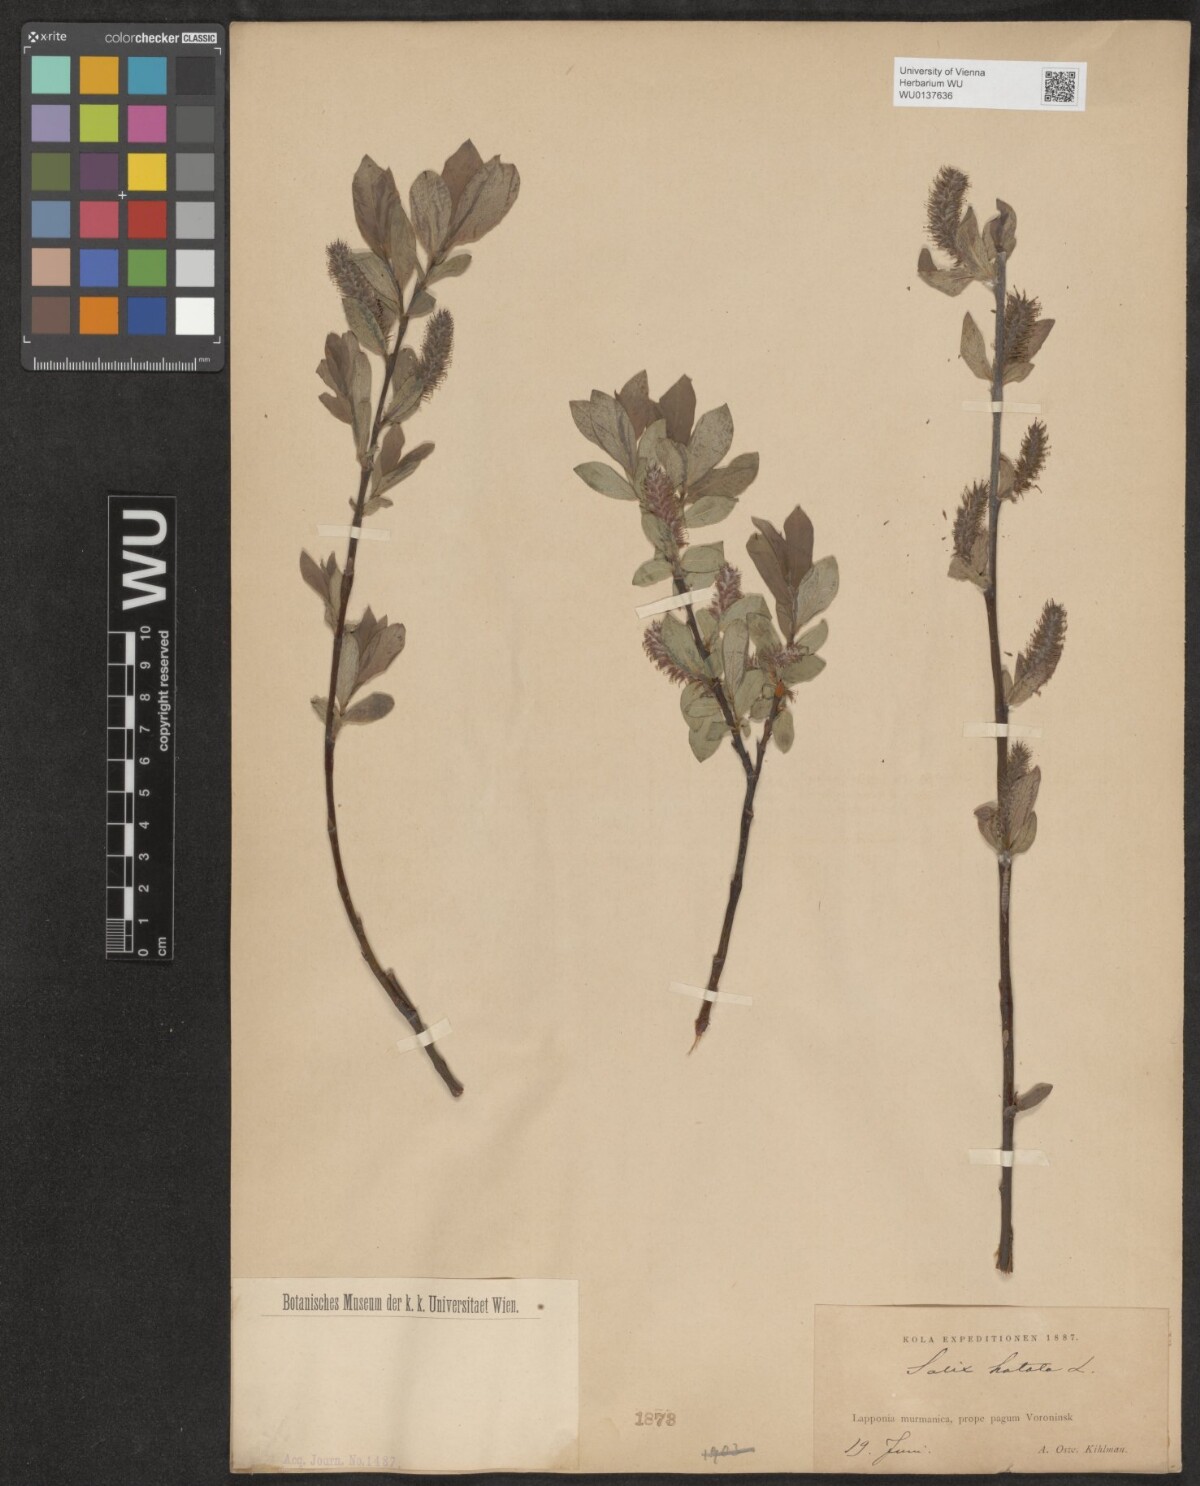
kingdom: Plantae
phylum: Tracheophyta
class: Magnoliopsida
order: Malpighiales
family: Salicaceae
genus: Salix
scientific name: Salix hastata
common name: Halberd willow
